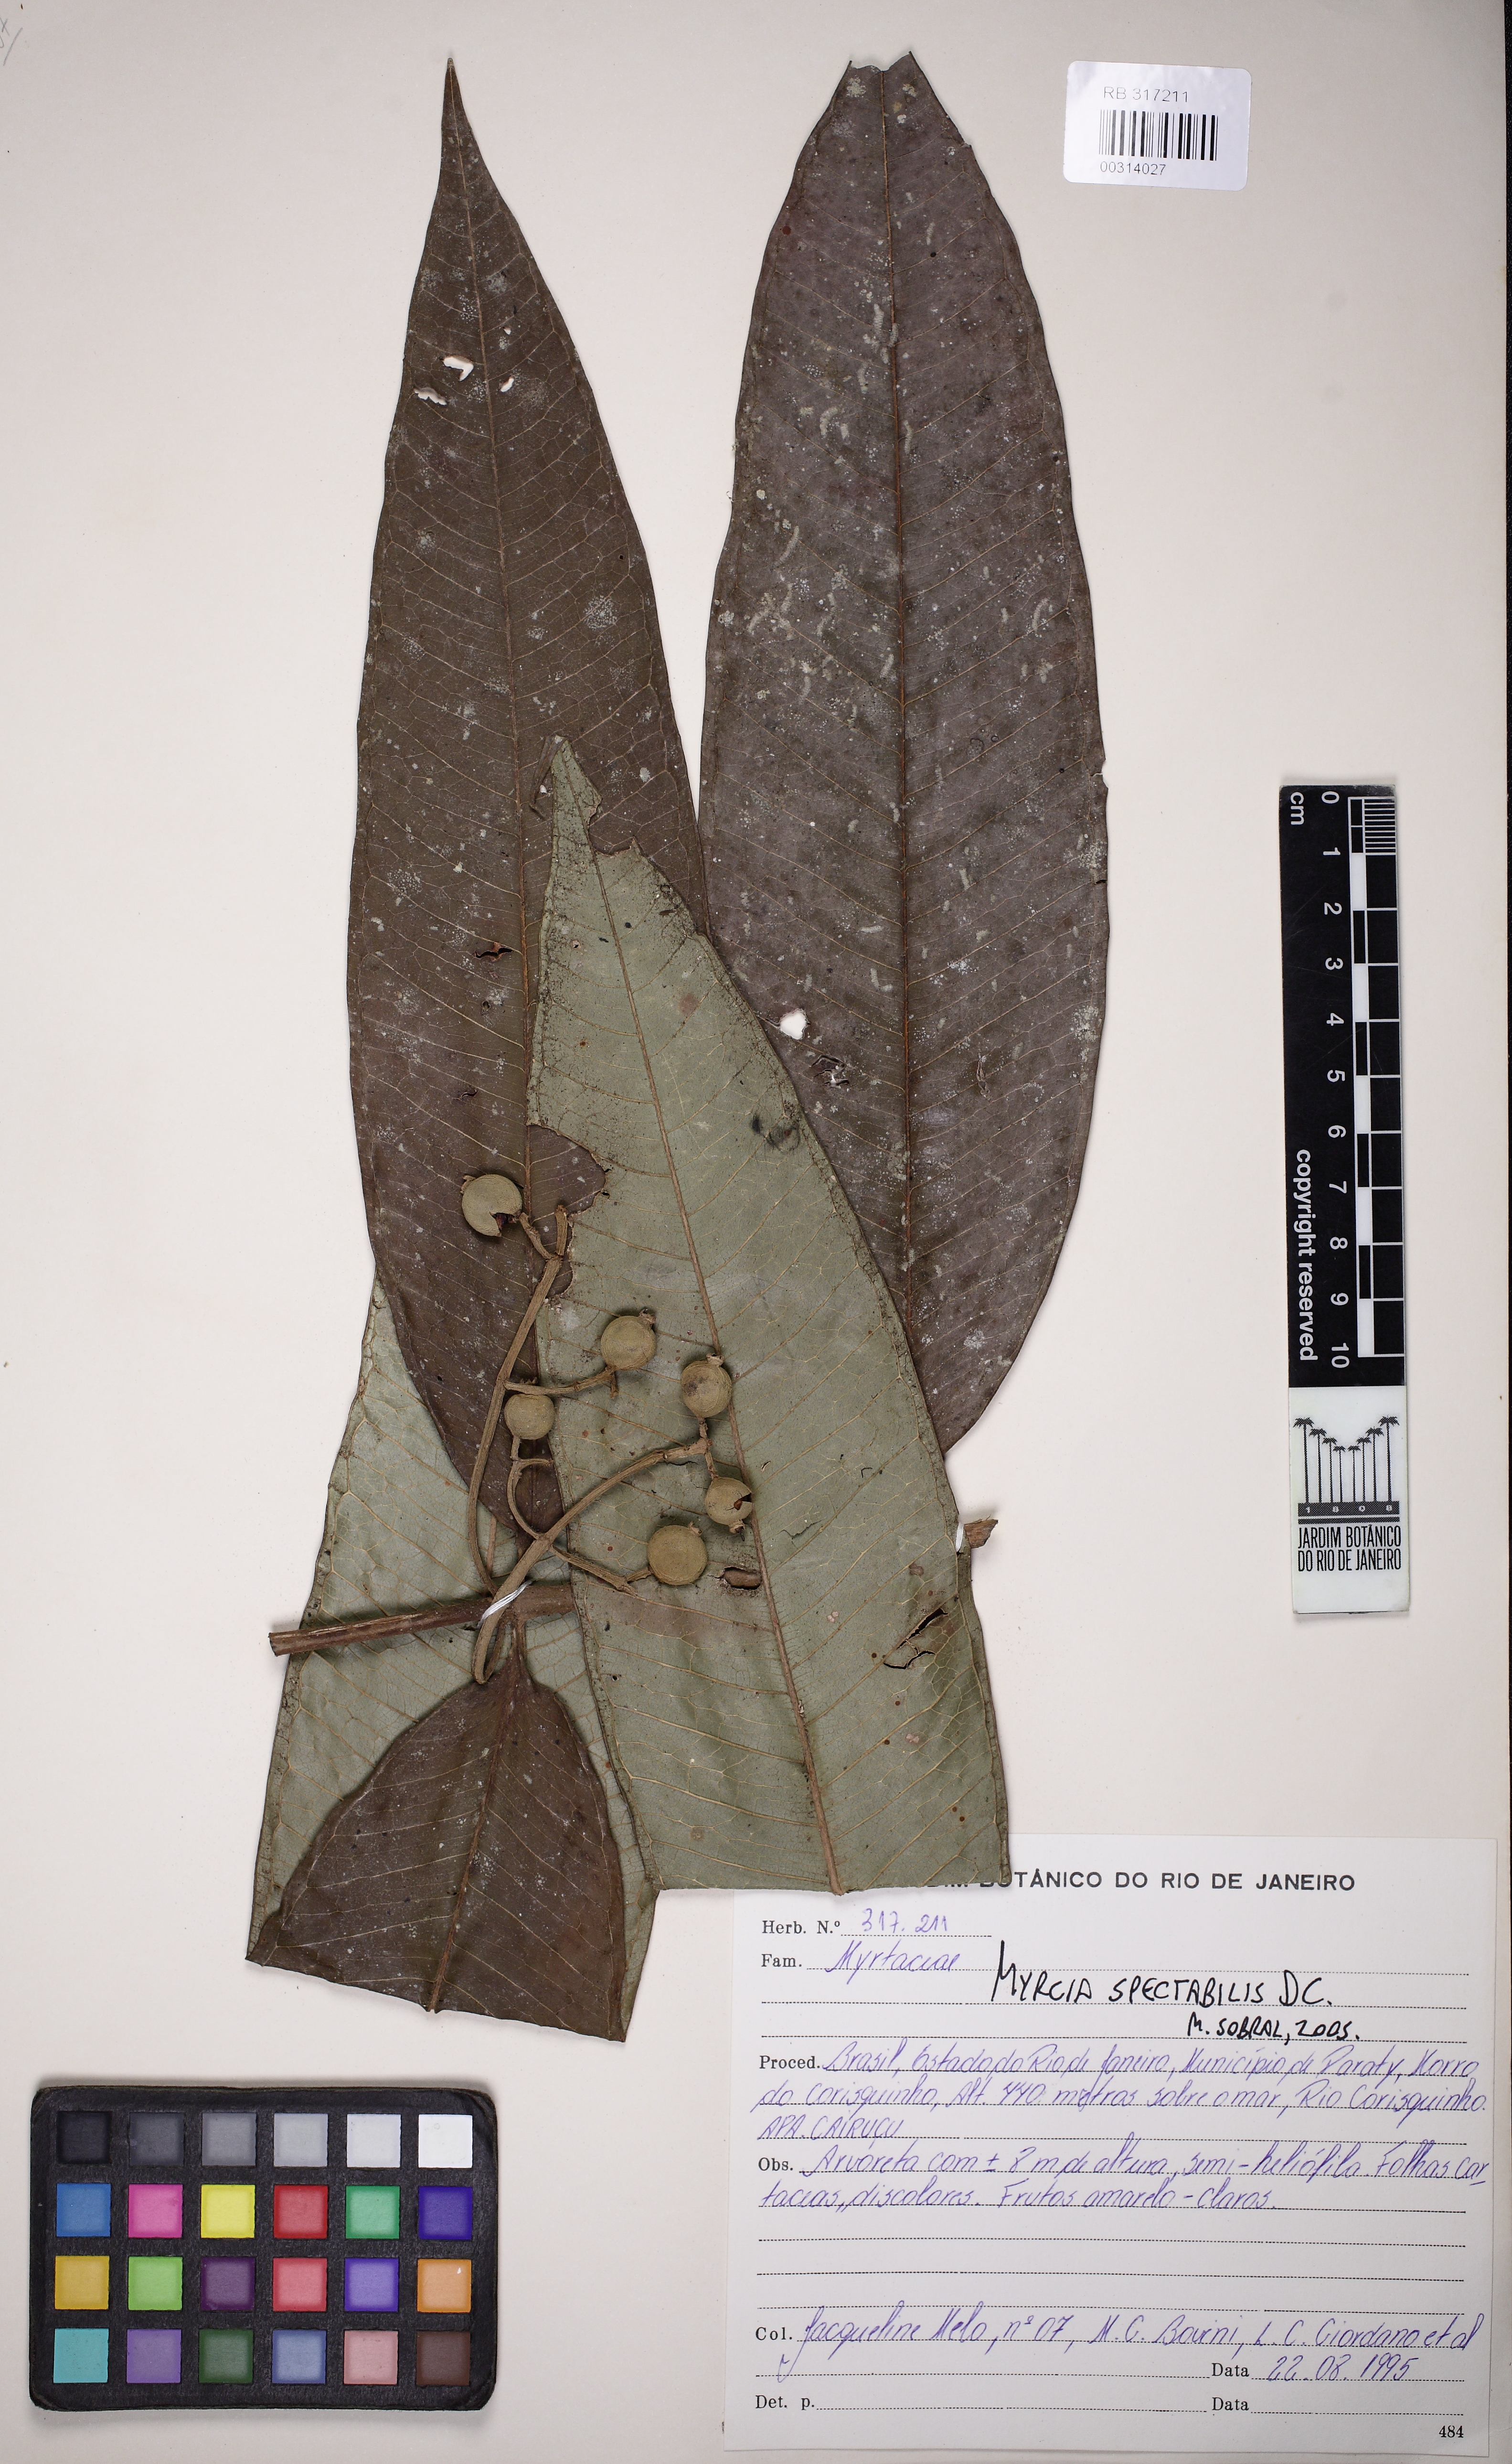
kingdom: Plantae
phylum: Tracheophyta
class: Magnoliopsida
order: Myrtales
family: Myrtaceae
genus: Myrcia
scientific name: Myrcia spectabilis
